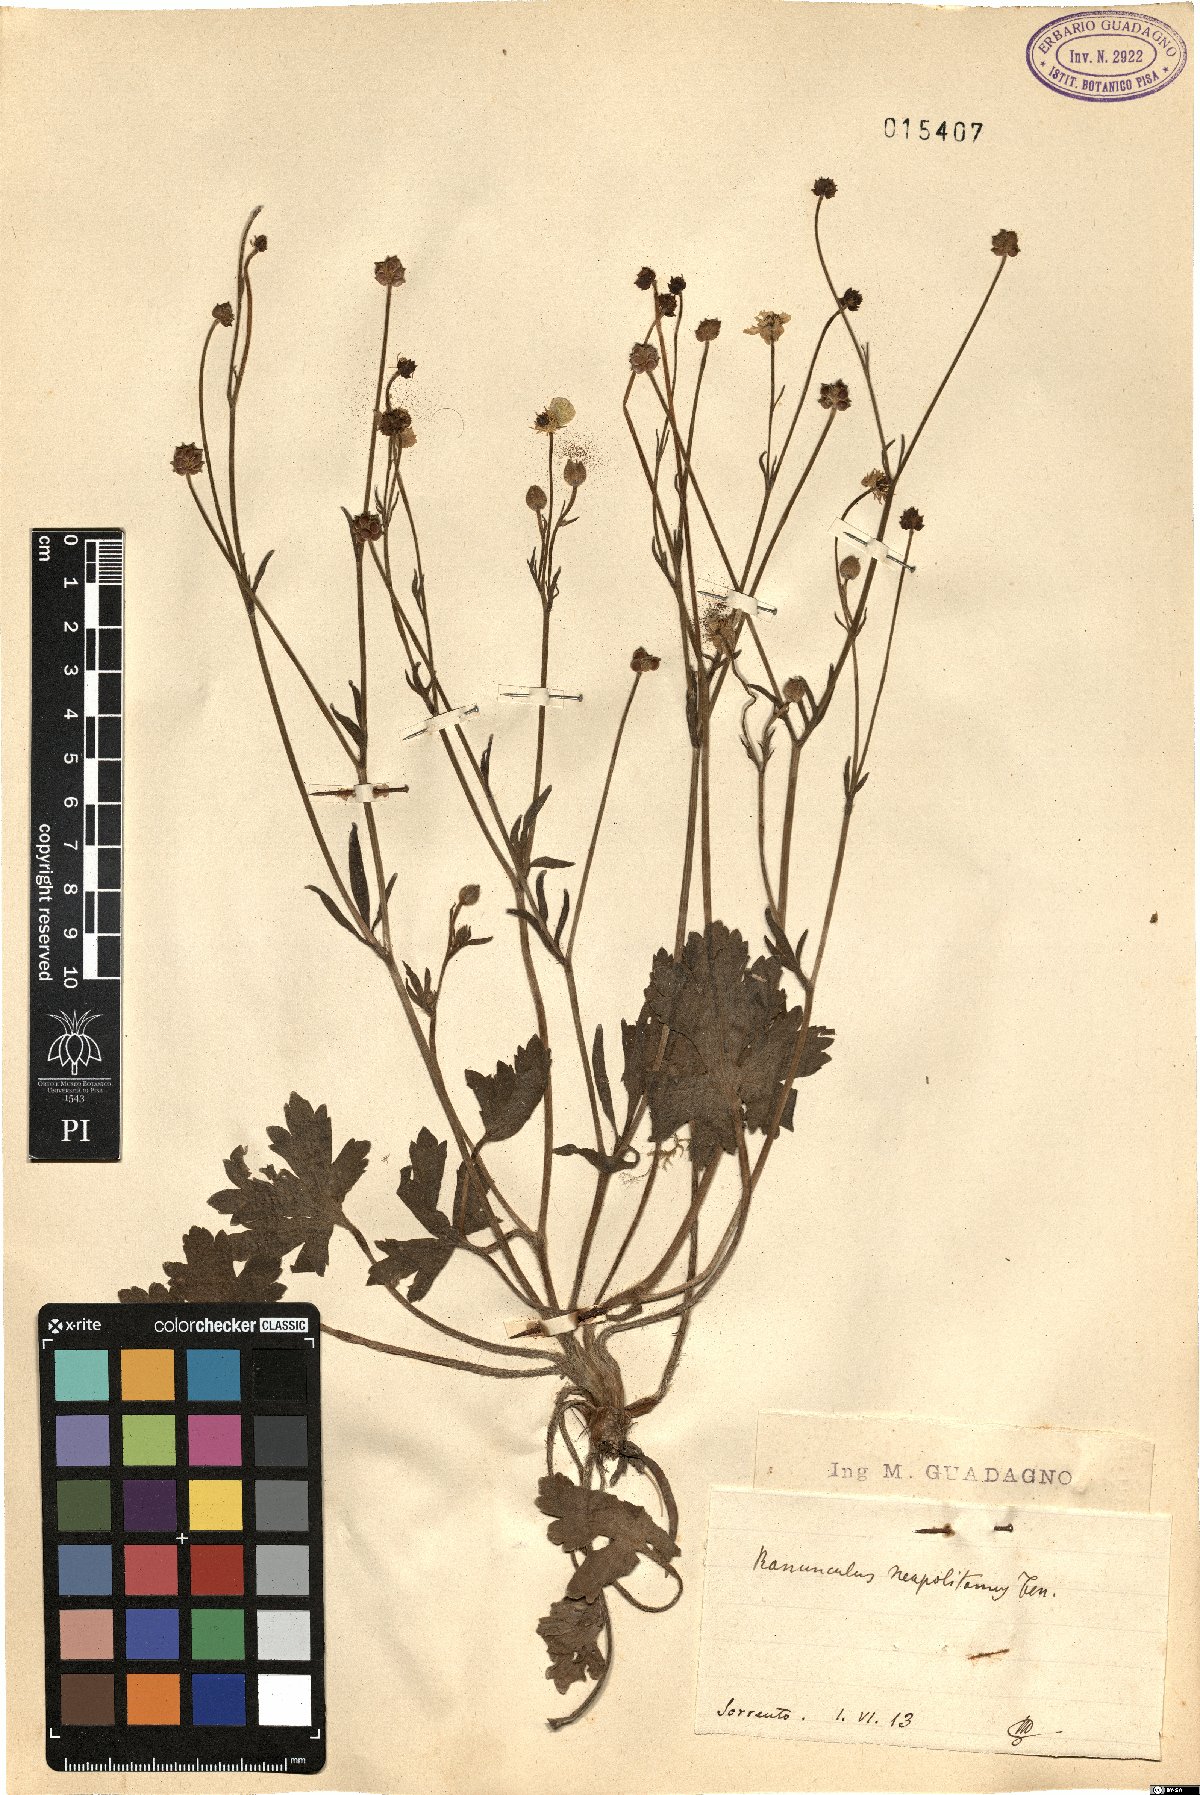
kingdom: Plantae
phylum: Tracheophyta
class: Magnoliopsida
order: Ranunculales
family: Ranunculaceae
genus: Ranunculus
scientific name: Ranunculus neapolitanus
